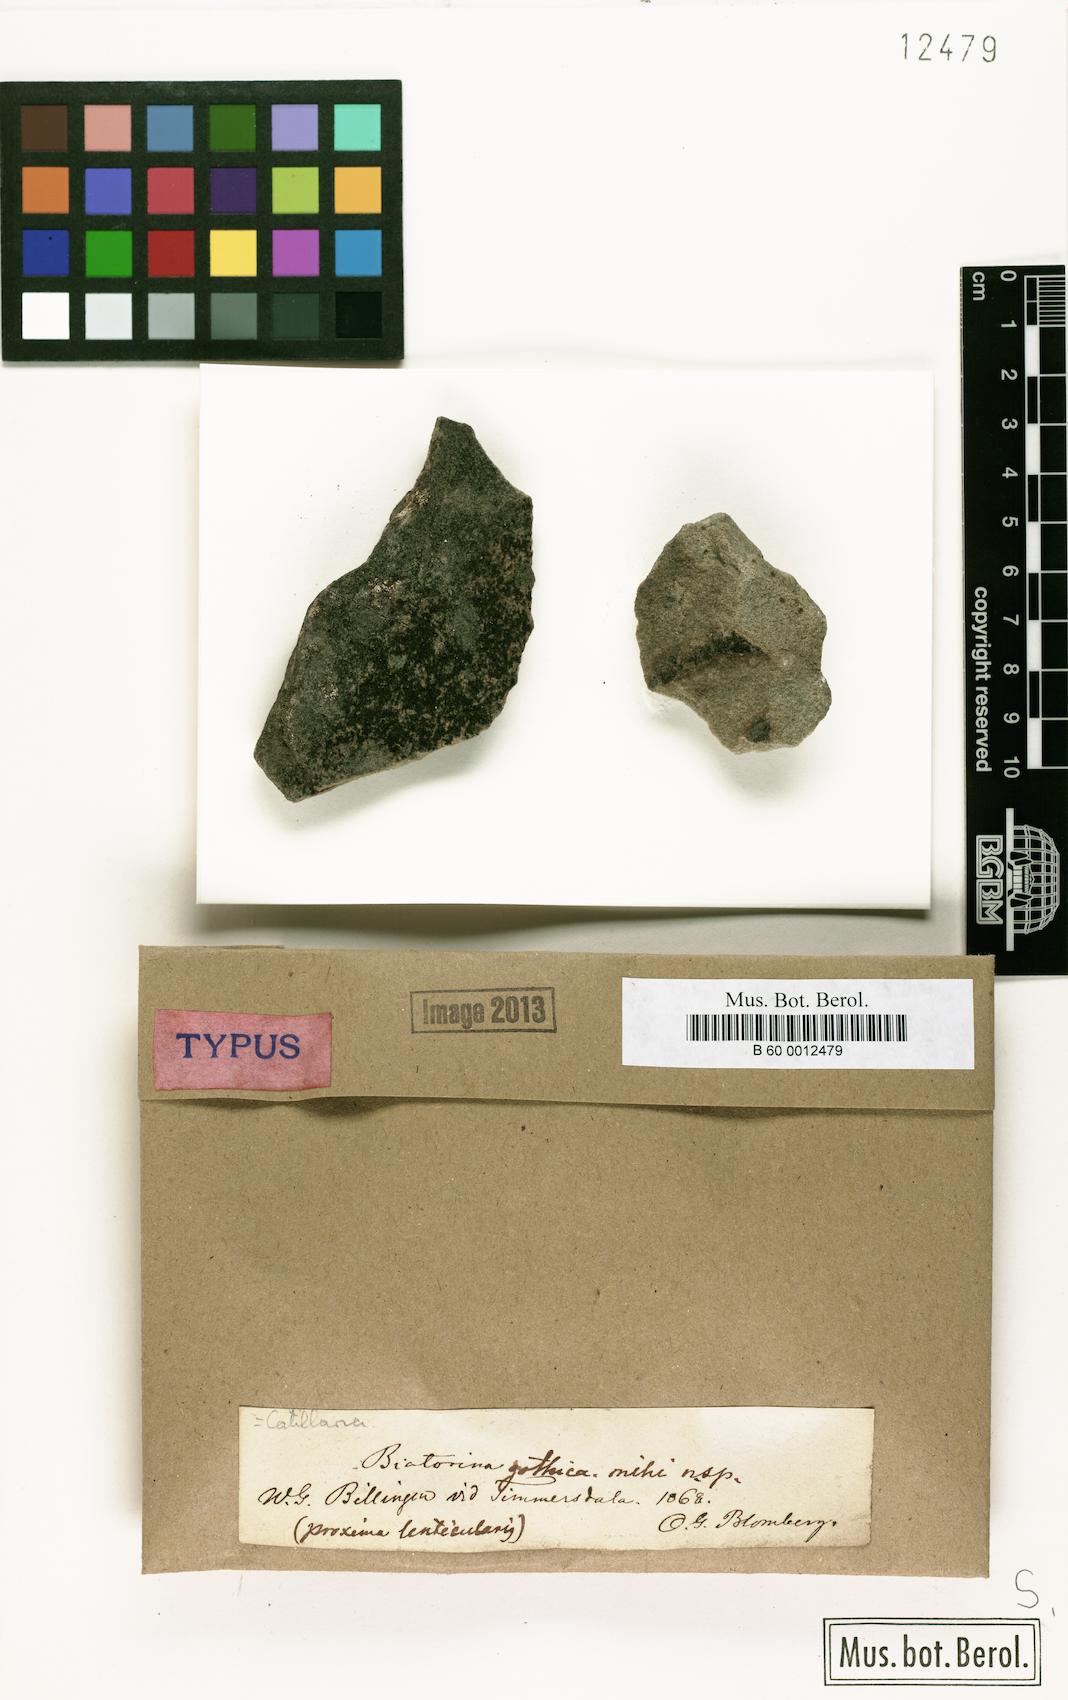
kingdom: Fungi
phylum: Ascomycota
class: Lecanoromycetes
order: Lecanorales
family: Catillariaceae
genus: Catillaria
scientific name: Catillaria
